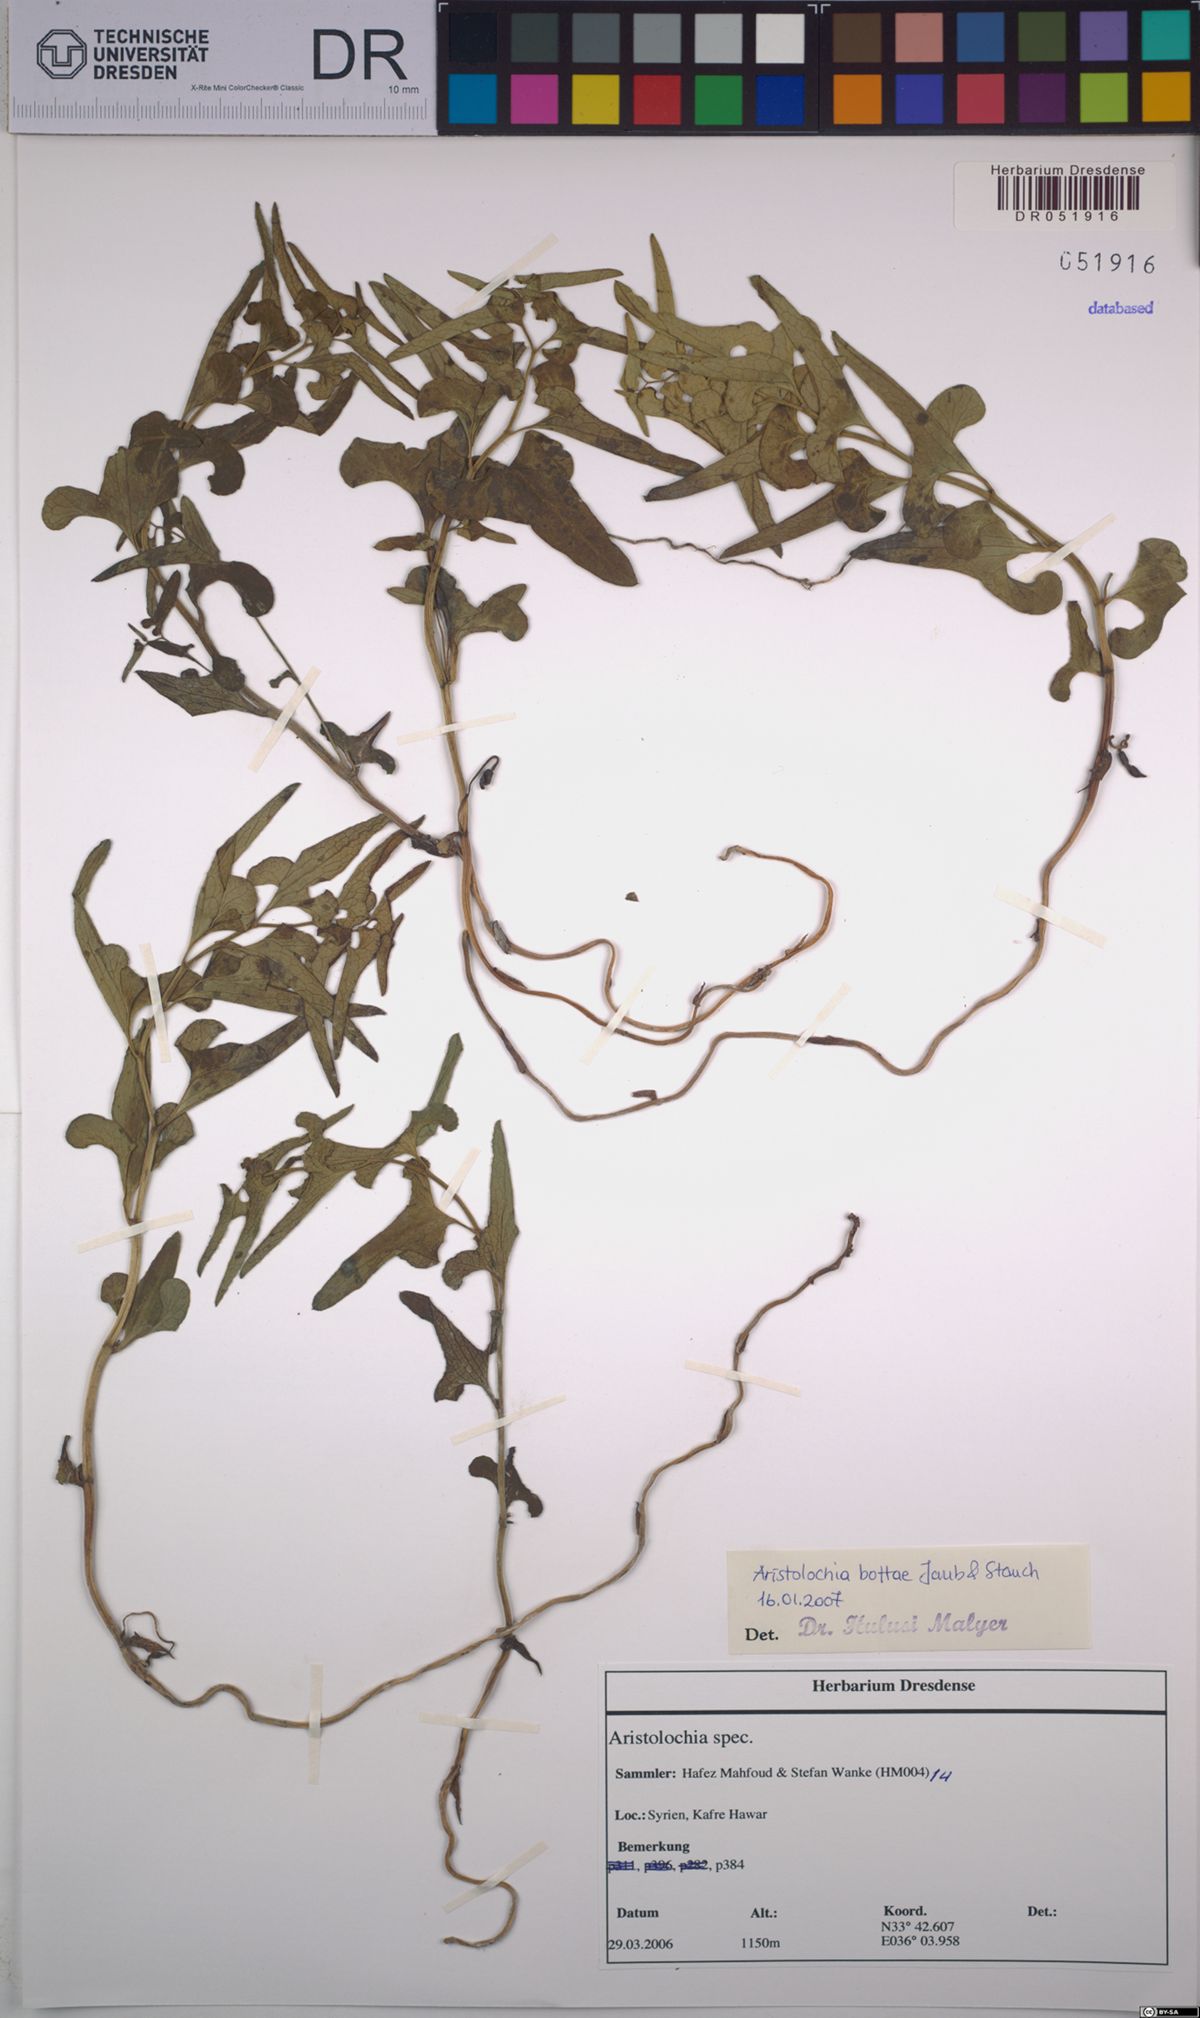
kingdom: Plantae
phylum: Tracheophyta
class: Magnoliopsida
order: Piperales
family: Aristolochiaceae
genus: Aristolochia
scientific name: Aristolochia bottae
